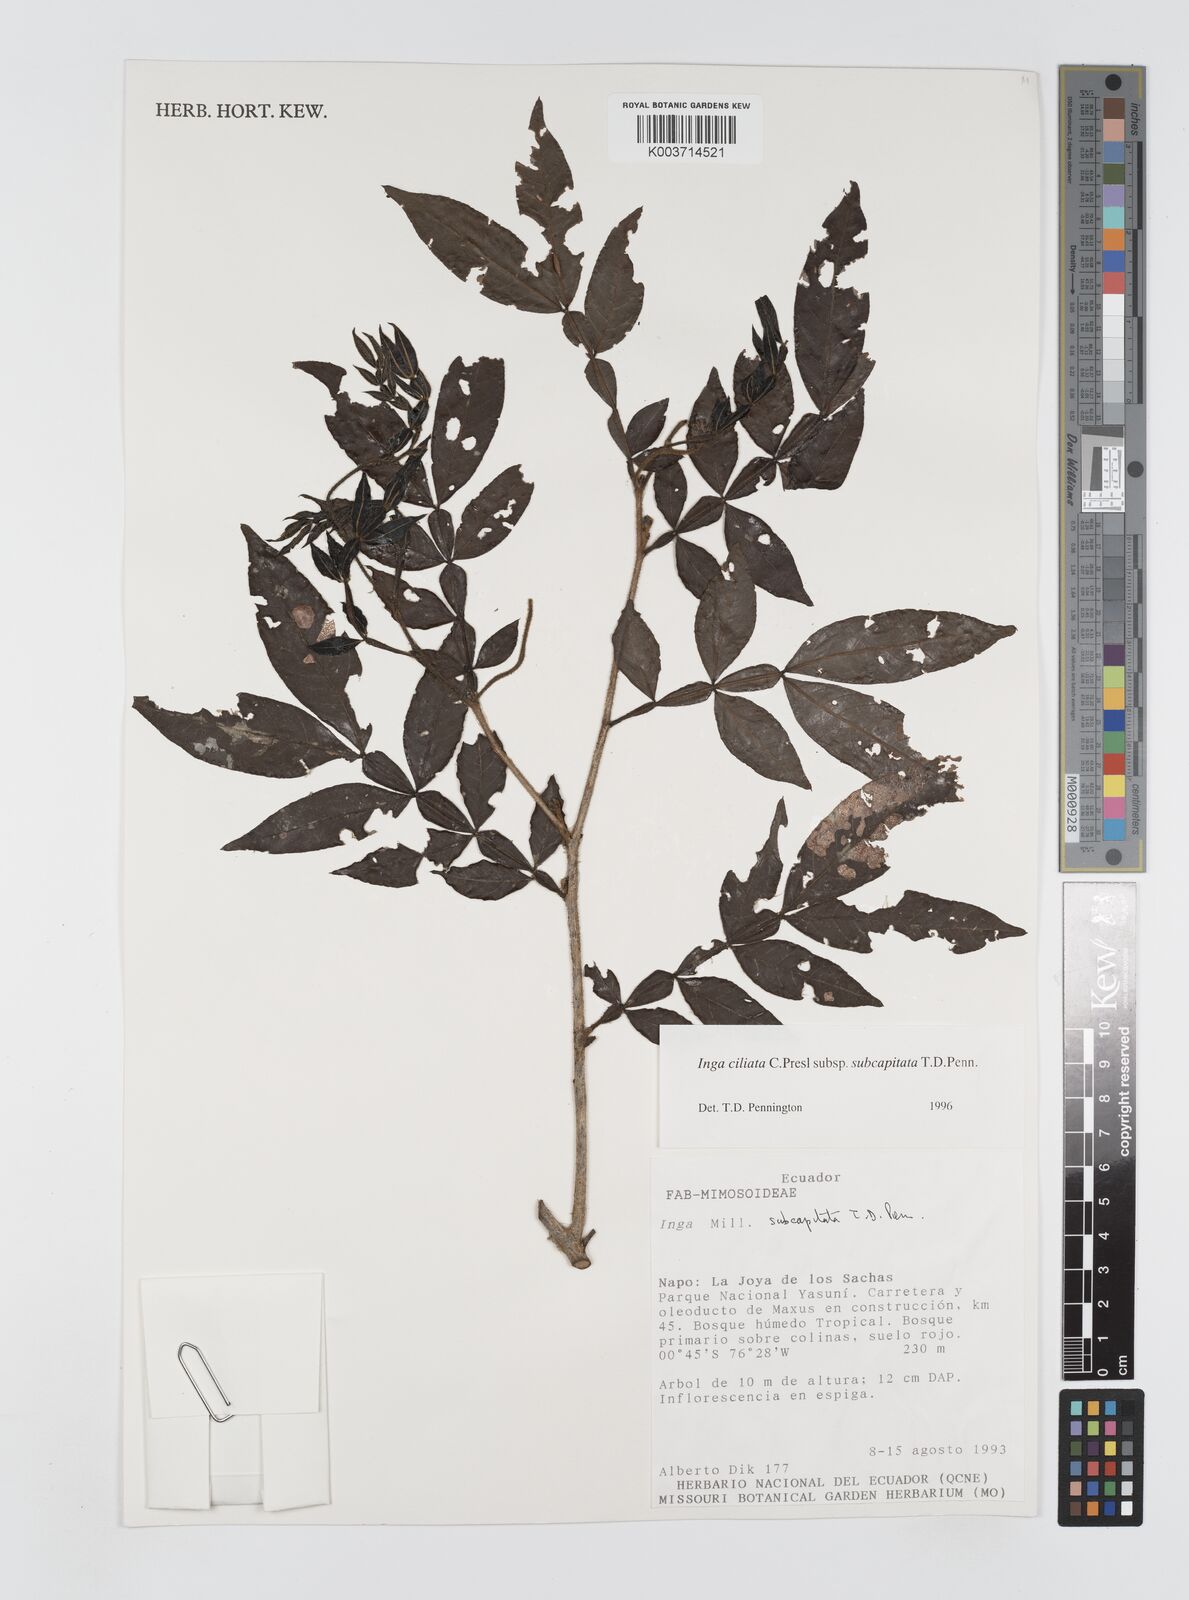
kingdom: Plantae
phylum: Tracheophyta
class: Magnoliopsida
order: Fabales
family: Fabaceae
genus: Inga
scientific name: Inga ciliata
